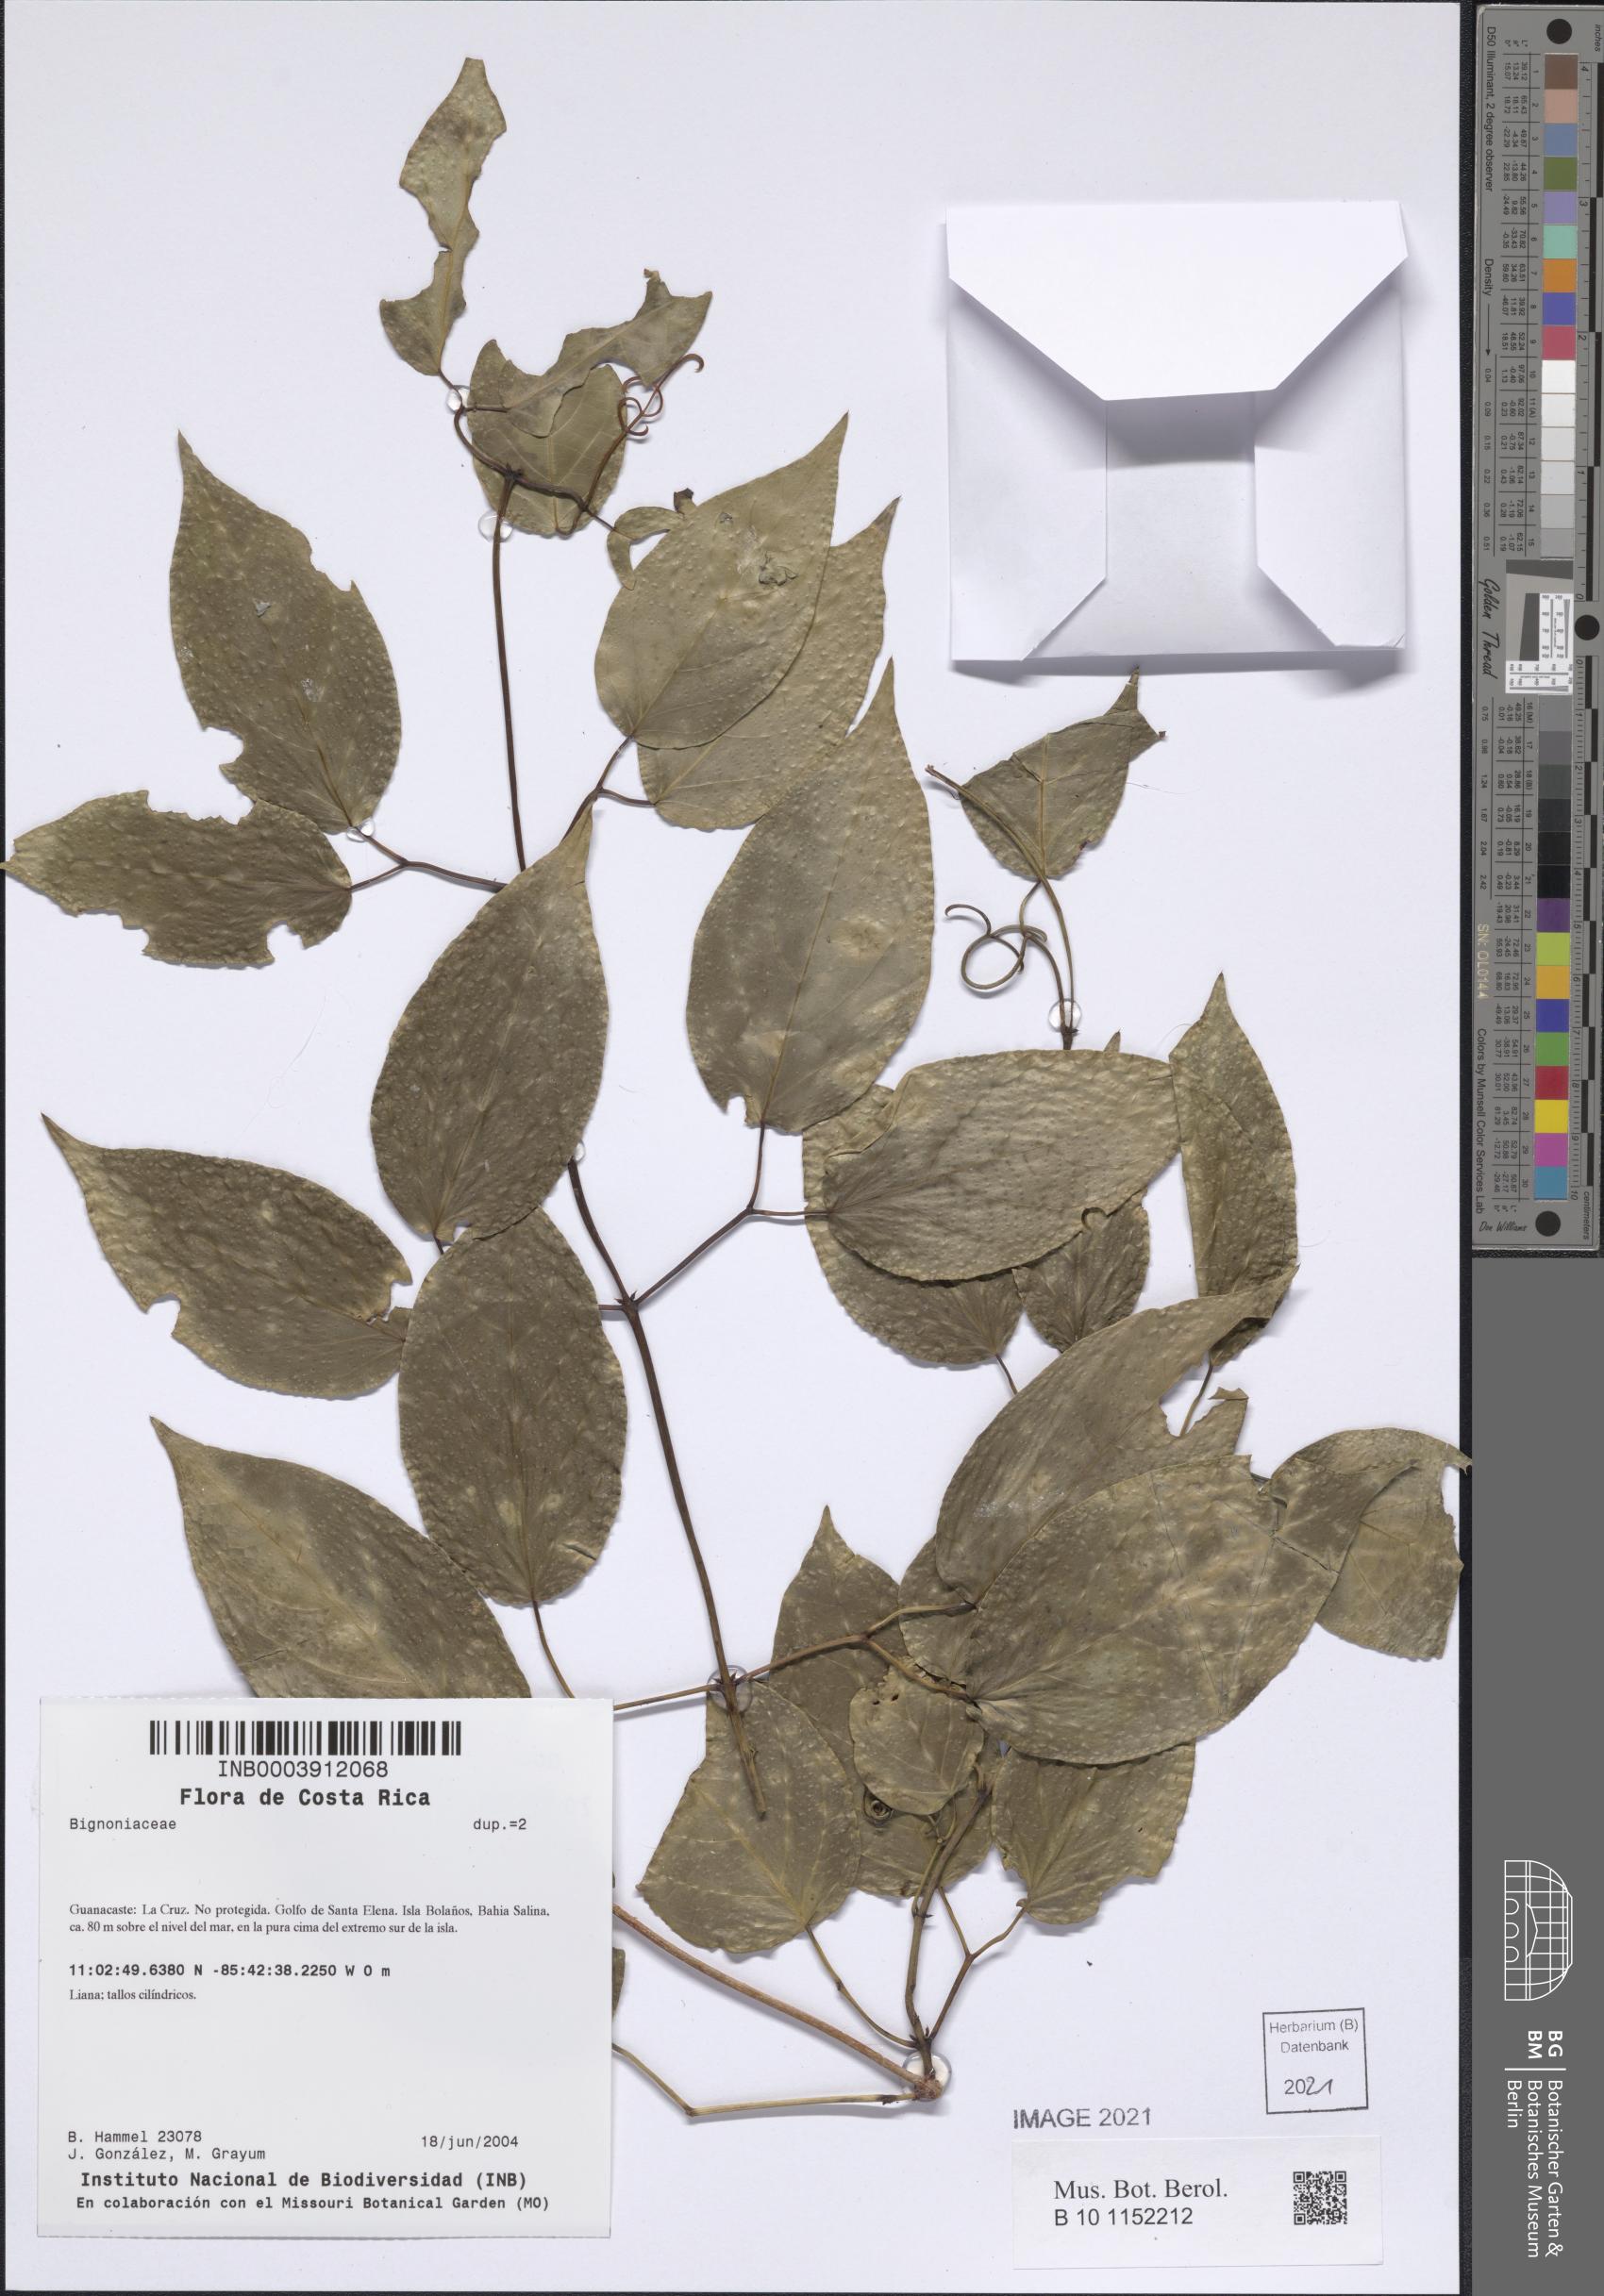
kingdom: Plantae
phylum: Tracheophyta
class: Magnoliopsida
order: Lamiales
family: Bignoniaceae
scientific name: Bignoniaceae
